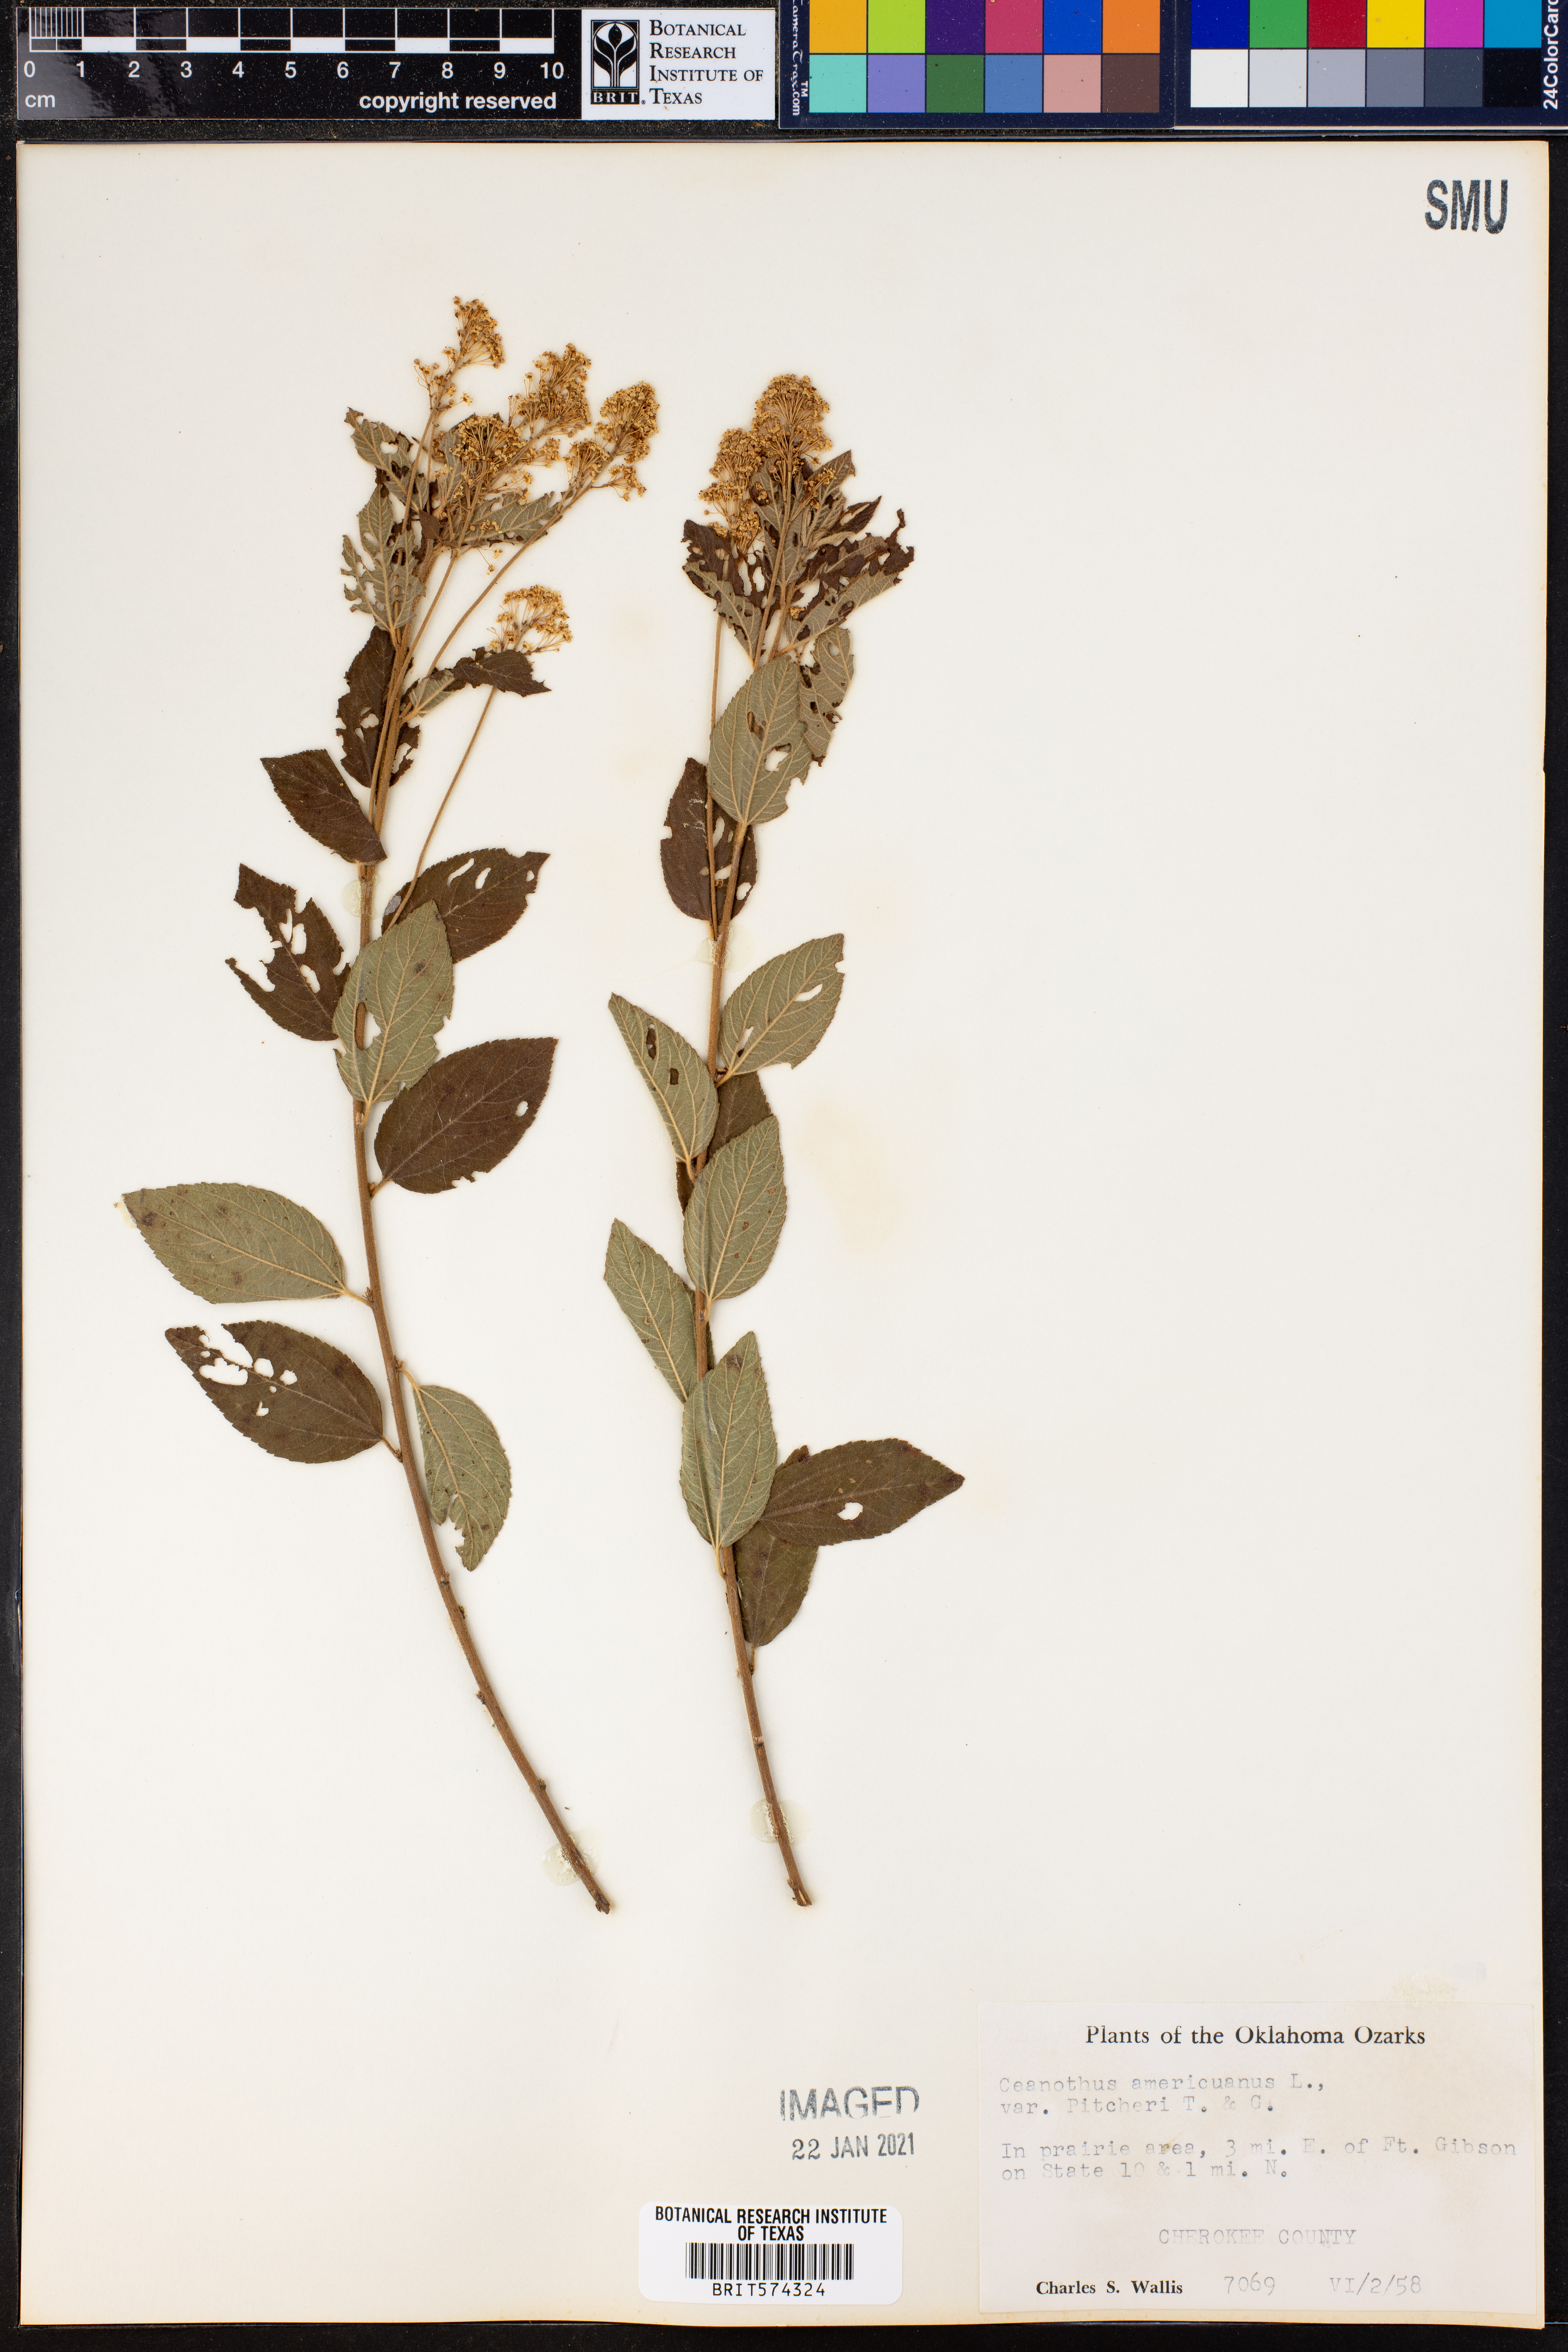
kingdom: Plantae
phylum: Tracheophyta
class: Magnoliopsida
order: Rosales
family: Rhamnaceae
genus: Ceanothus
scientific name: Ceanothus americanus
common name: Redroot
